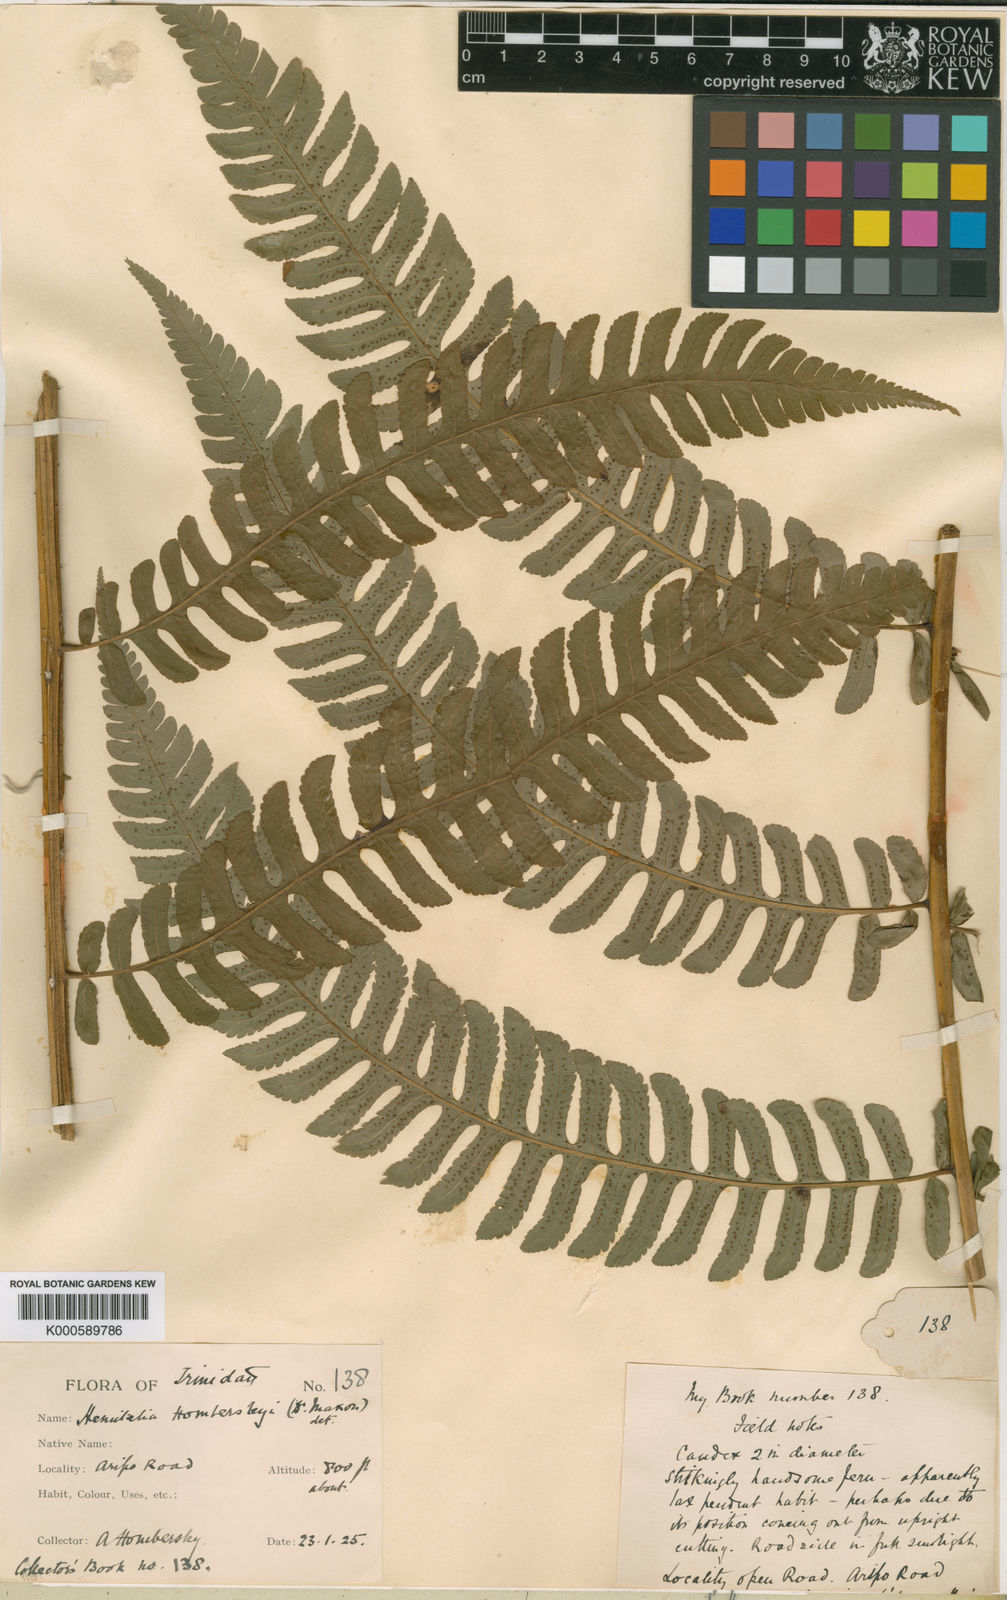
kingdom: Plantae
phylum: Tracheophyta
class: Polypodiopsida
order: Cyatheales
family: Cyatheaceae
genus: Cyathea
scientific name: Cyathea hombersleyi
